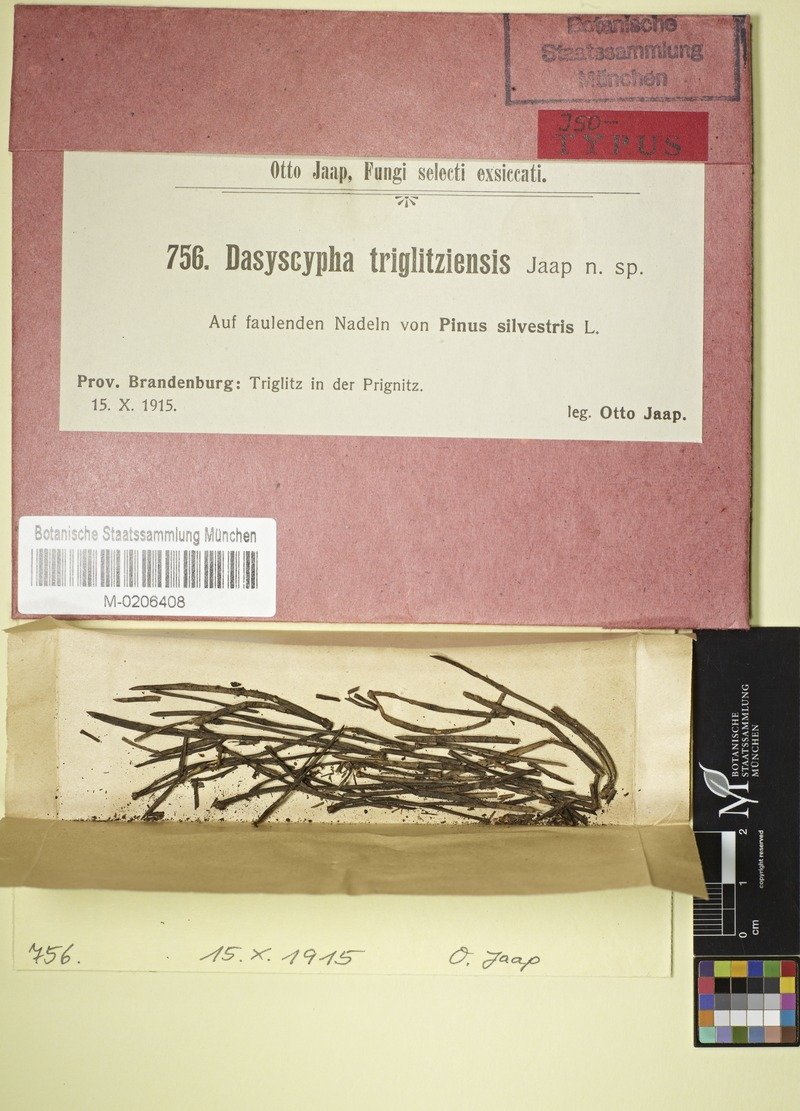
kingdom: Fungi
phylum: Ascomycota
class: Leotiomycetes
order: Helotiales
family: Hyaloscyphaceae
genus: Hyalopeziza
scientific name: Hyalopeziza trichodea
